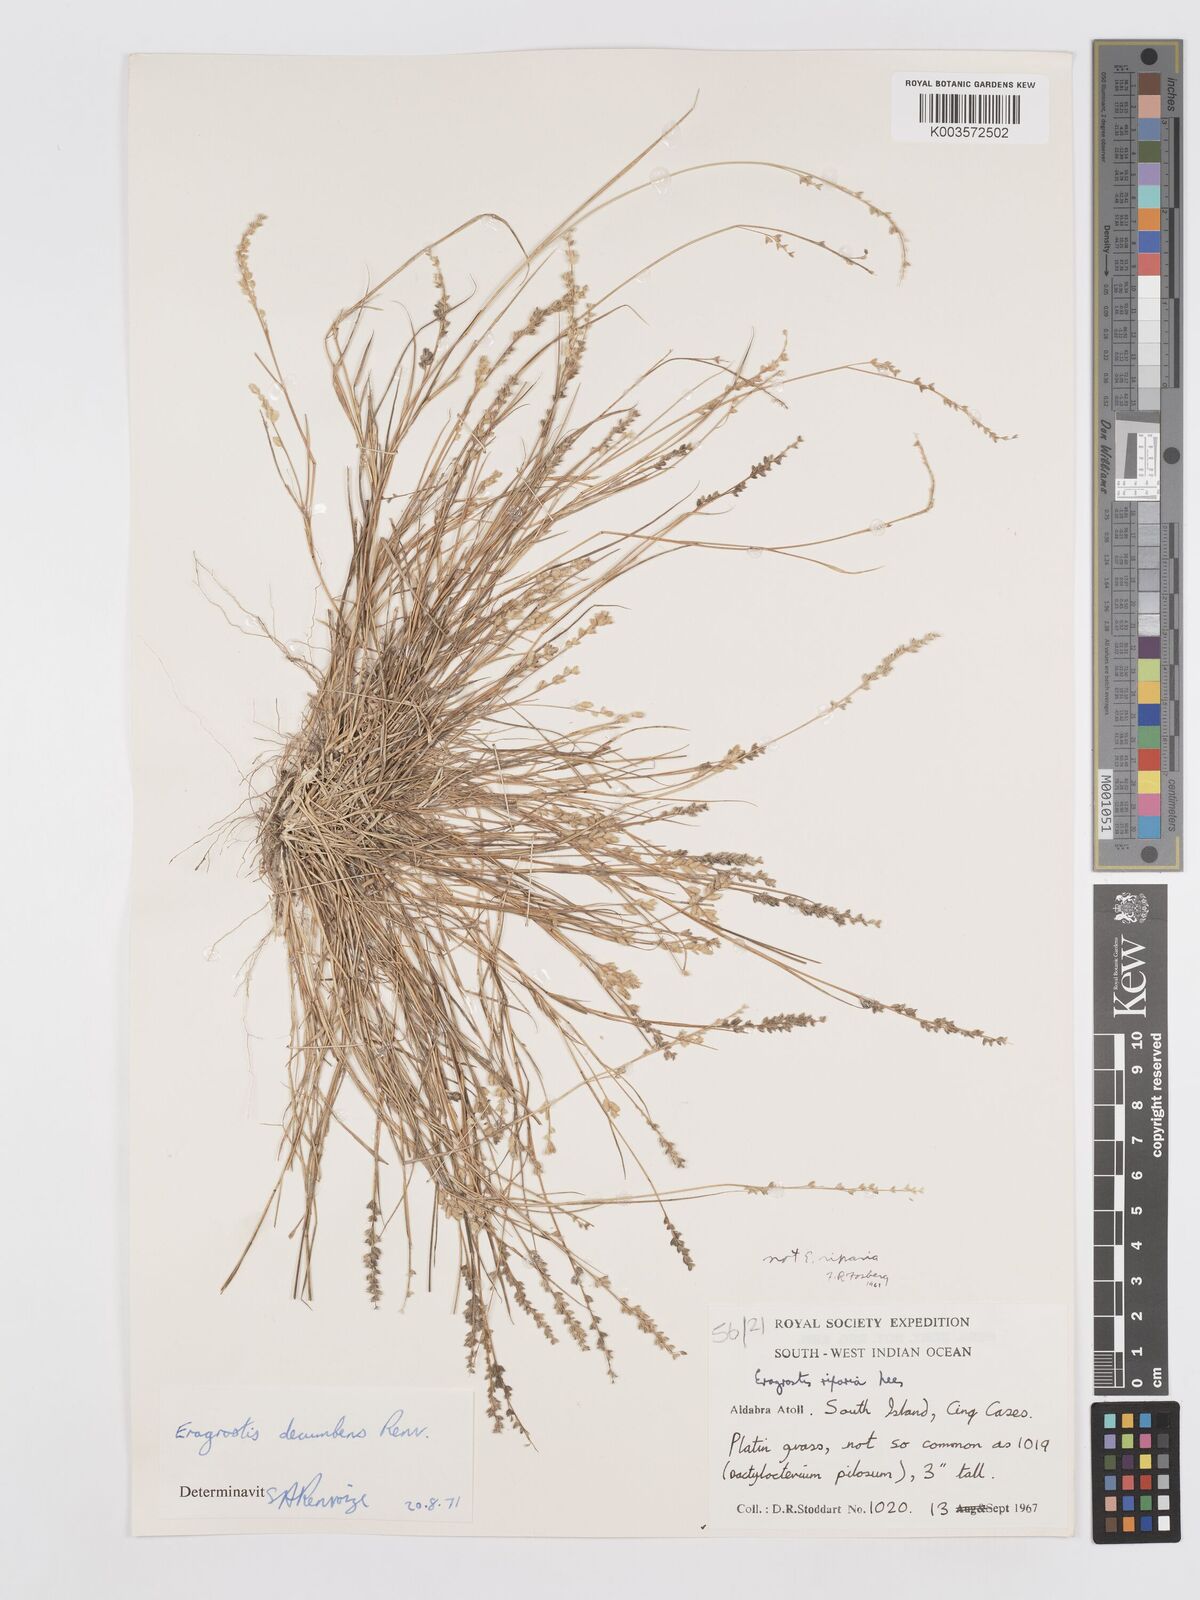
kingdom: Plantae
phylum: Tracheophyta
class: Liliopsida
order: Poales
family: Poaceae
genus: Eragrostis
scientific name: Eragrostis decumbens
